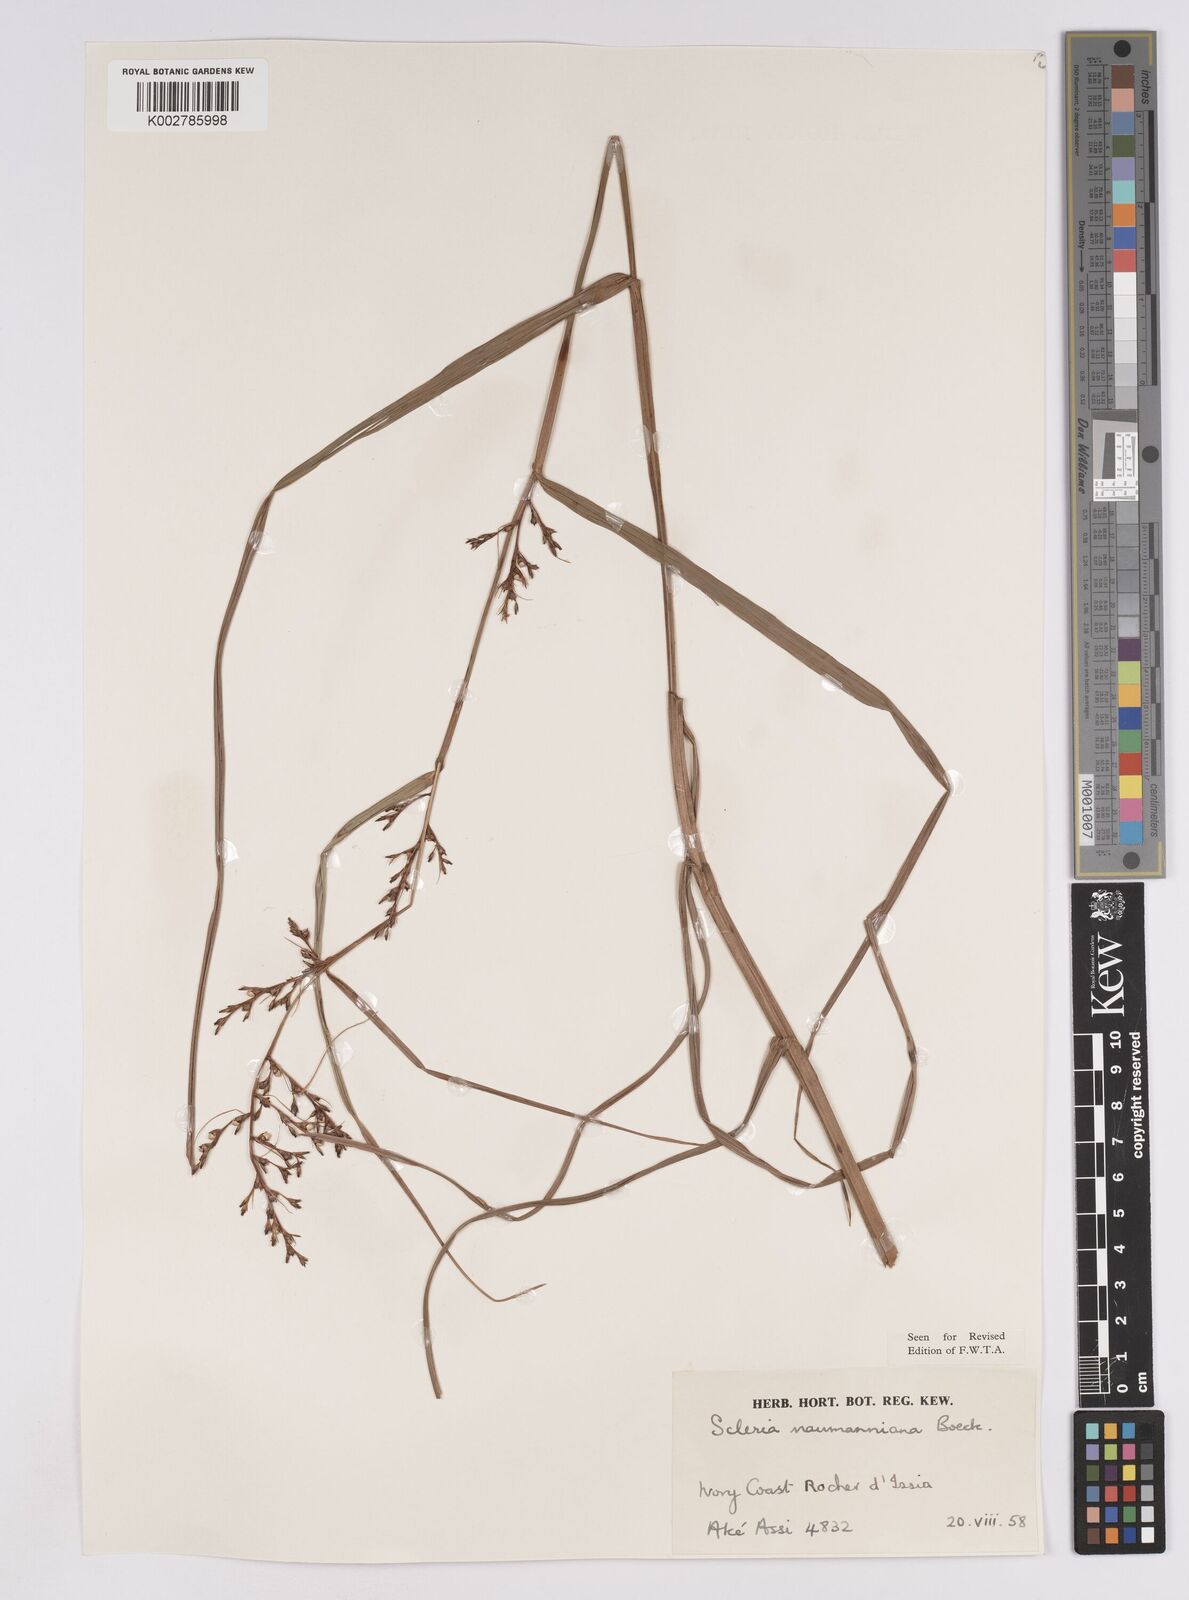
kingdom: Plantae
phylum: Tracheophyta
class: Liliopsida
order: Poales
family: Cyperaceae
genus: Scleria
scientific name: Scleria naumanniana
